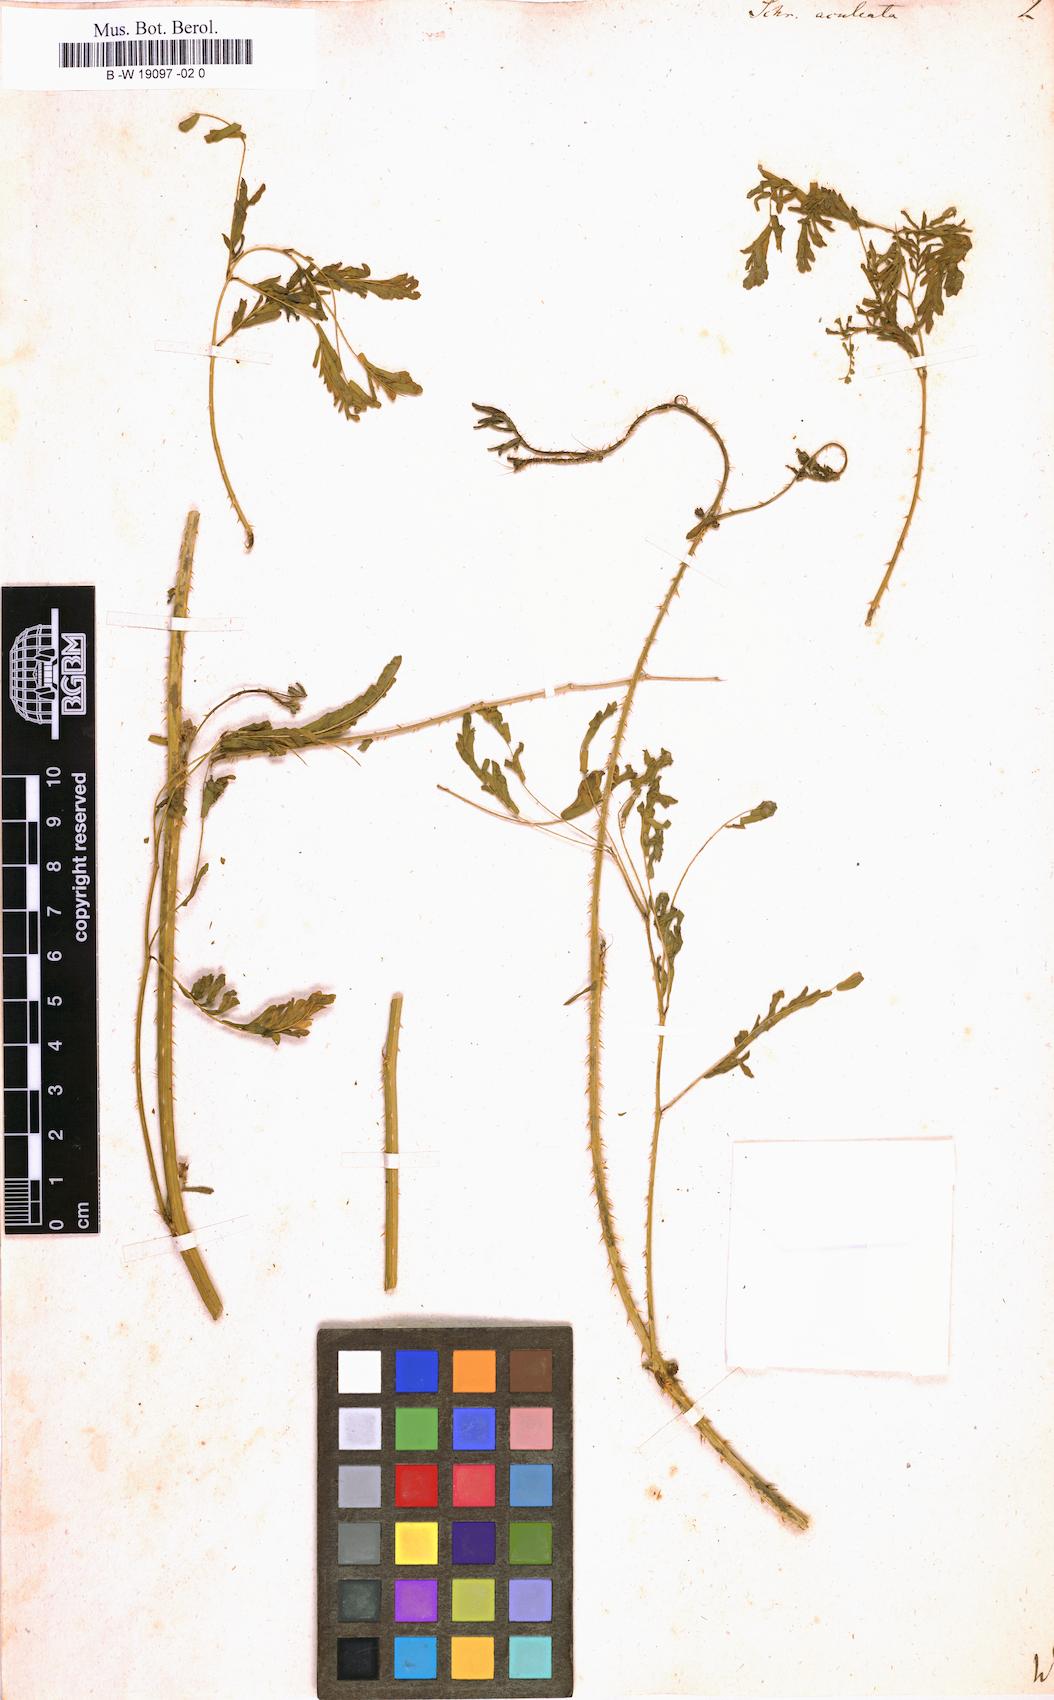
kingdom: Plantae
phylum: Tracheophyta
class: Magnoliopsida
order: Fabales
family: Fabaceae
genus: Mimosa
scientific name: Mimosa quadrivalvis
